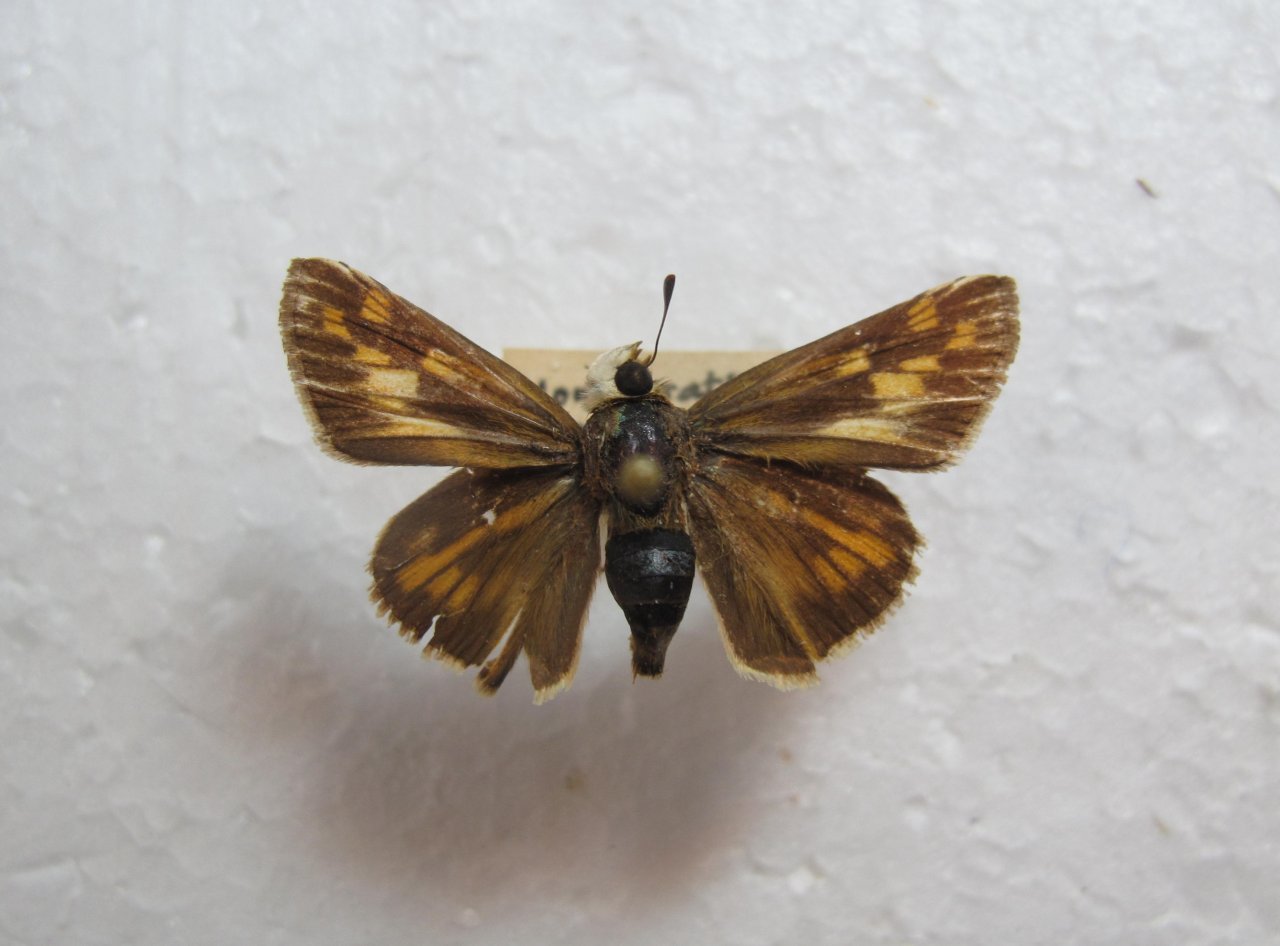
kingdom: Animalia
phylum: Arthropoda
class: Insecta
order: Lepidoptera
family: Hesperiidae
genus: Hylephila
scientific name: Hylephila phyleus
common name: Fiery Skipper
